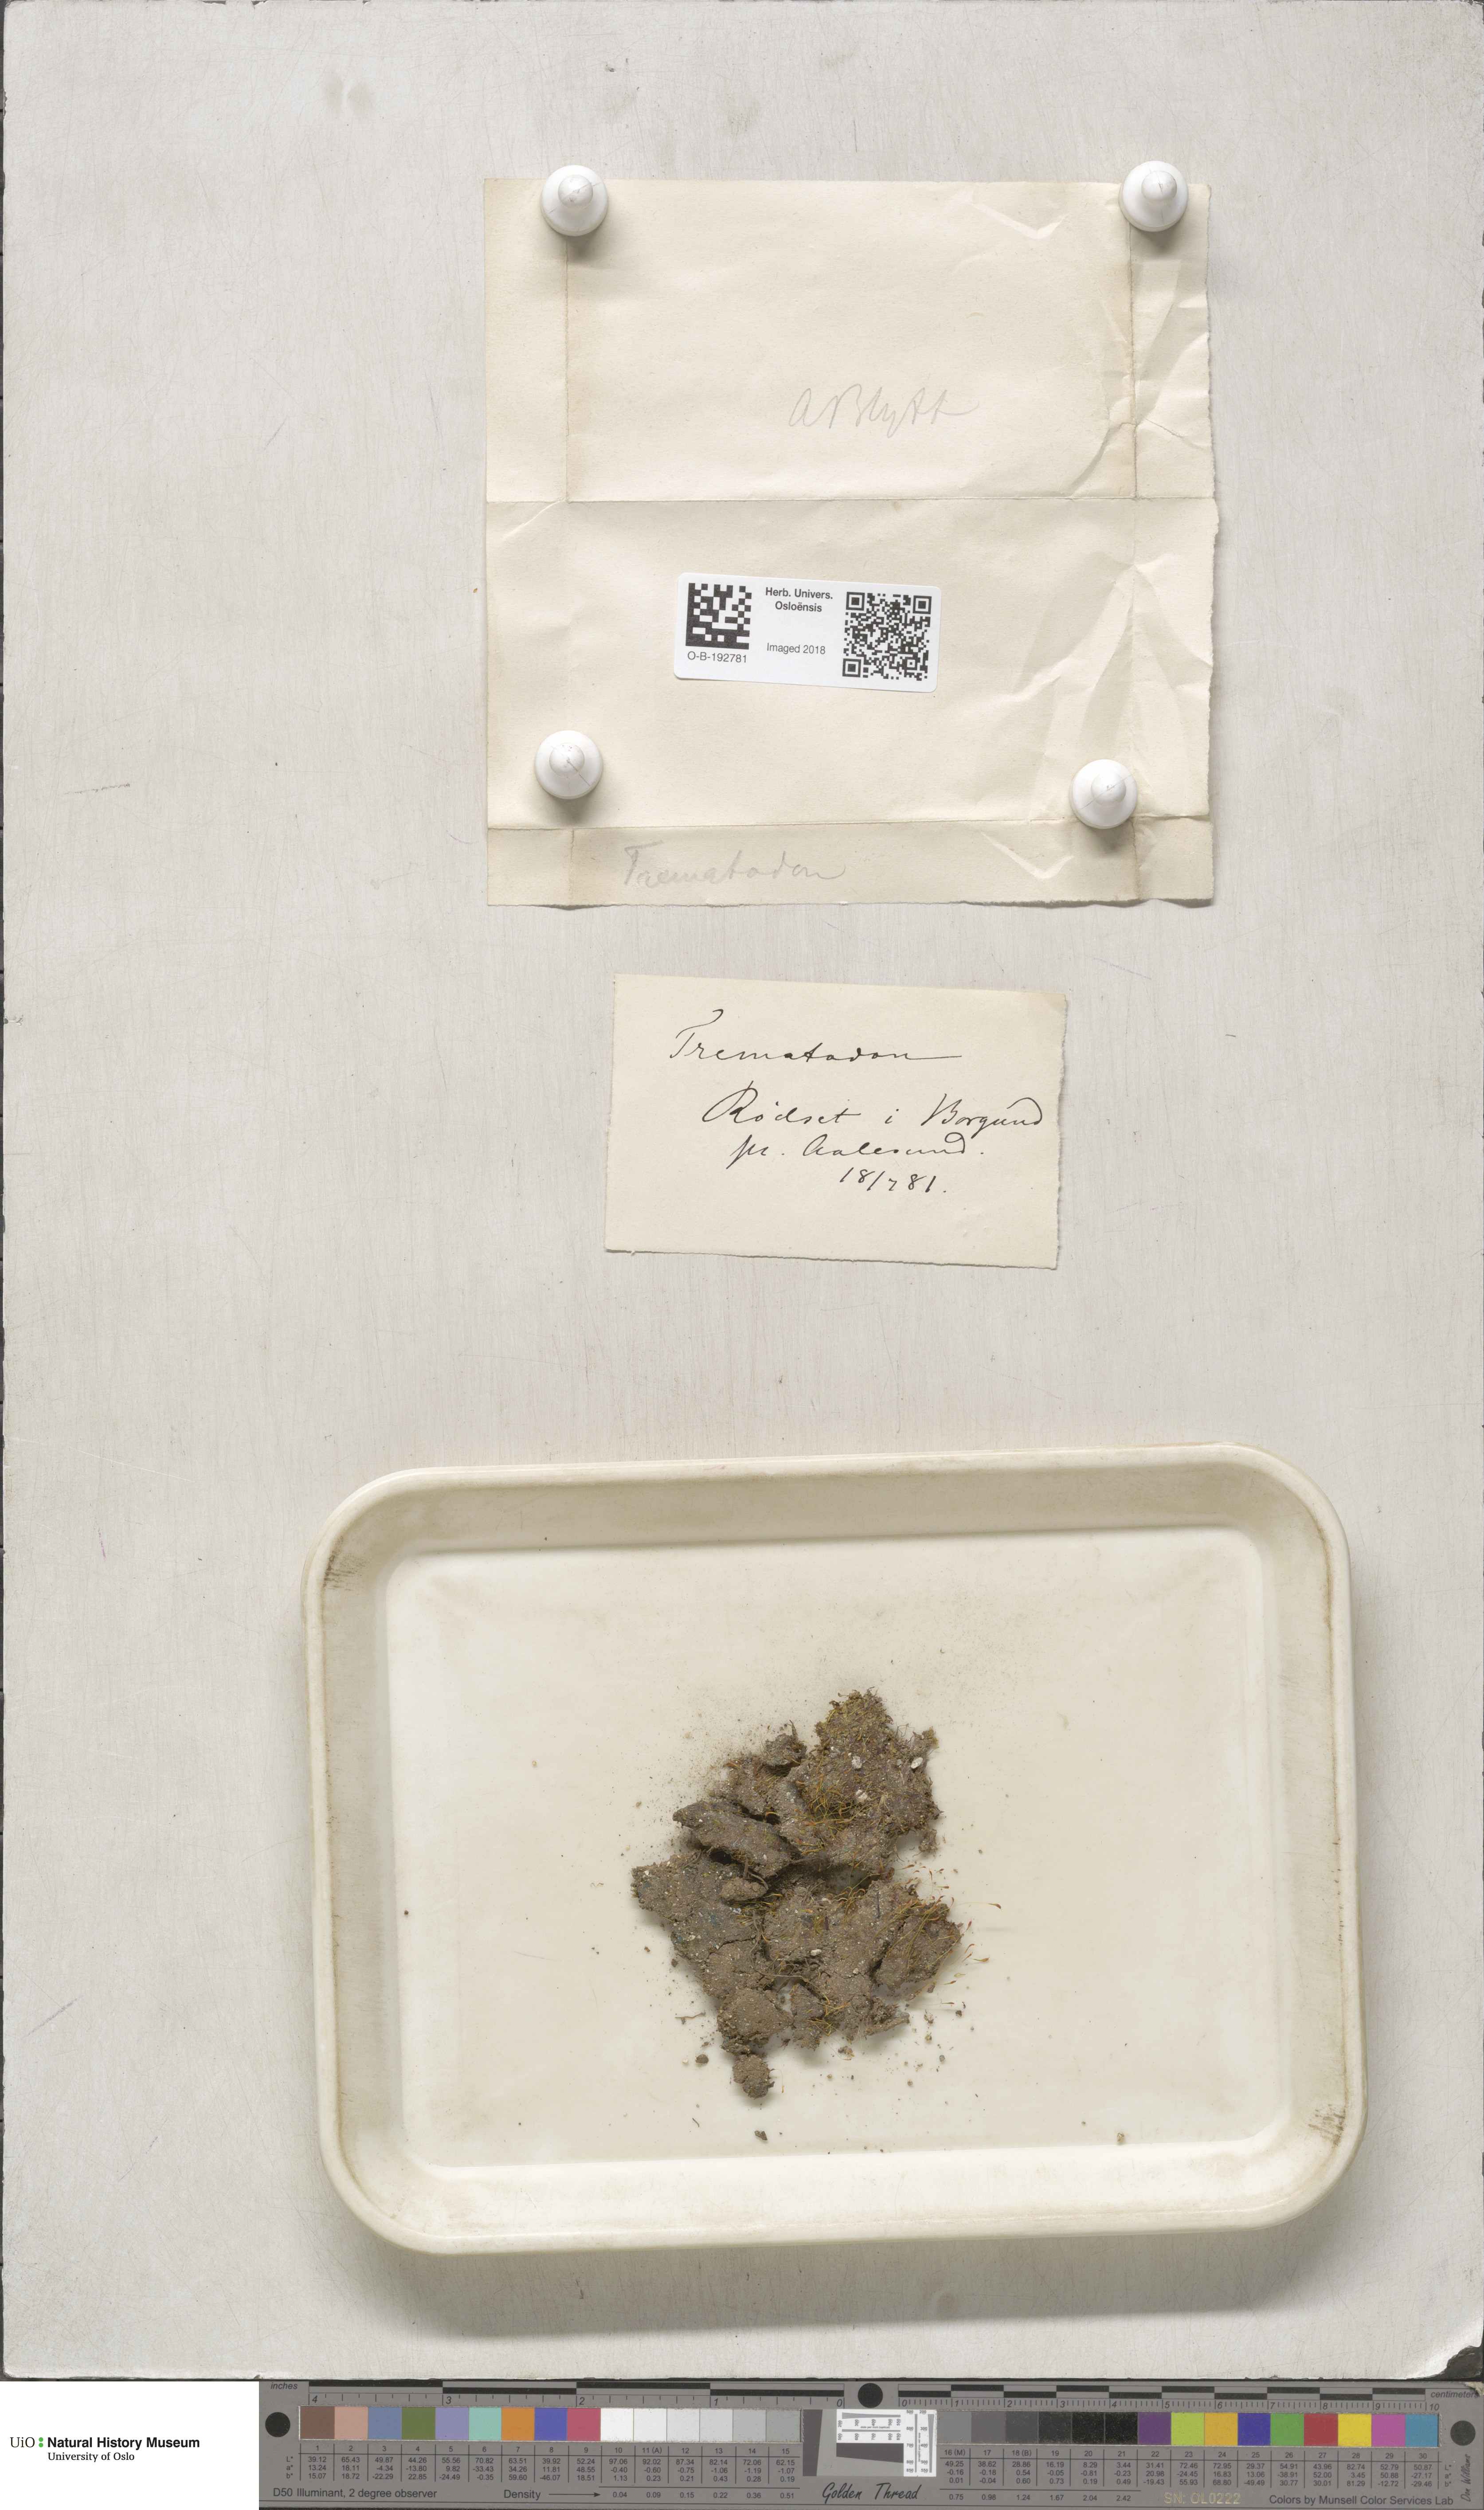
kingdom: Plantae
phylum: Bryophyta
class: Bryopsida
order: Dicranales
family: Bruchiaceae
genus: Trematodon
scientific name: Trematodon ambiguus
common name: Ambiguous long-necked moss
